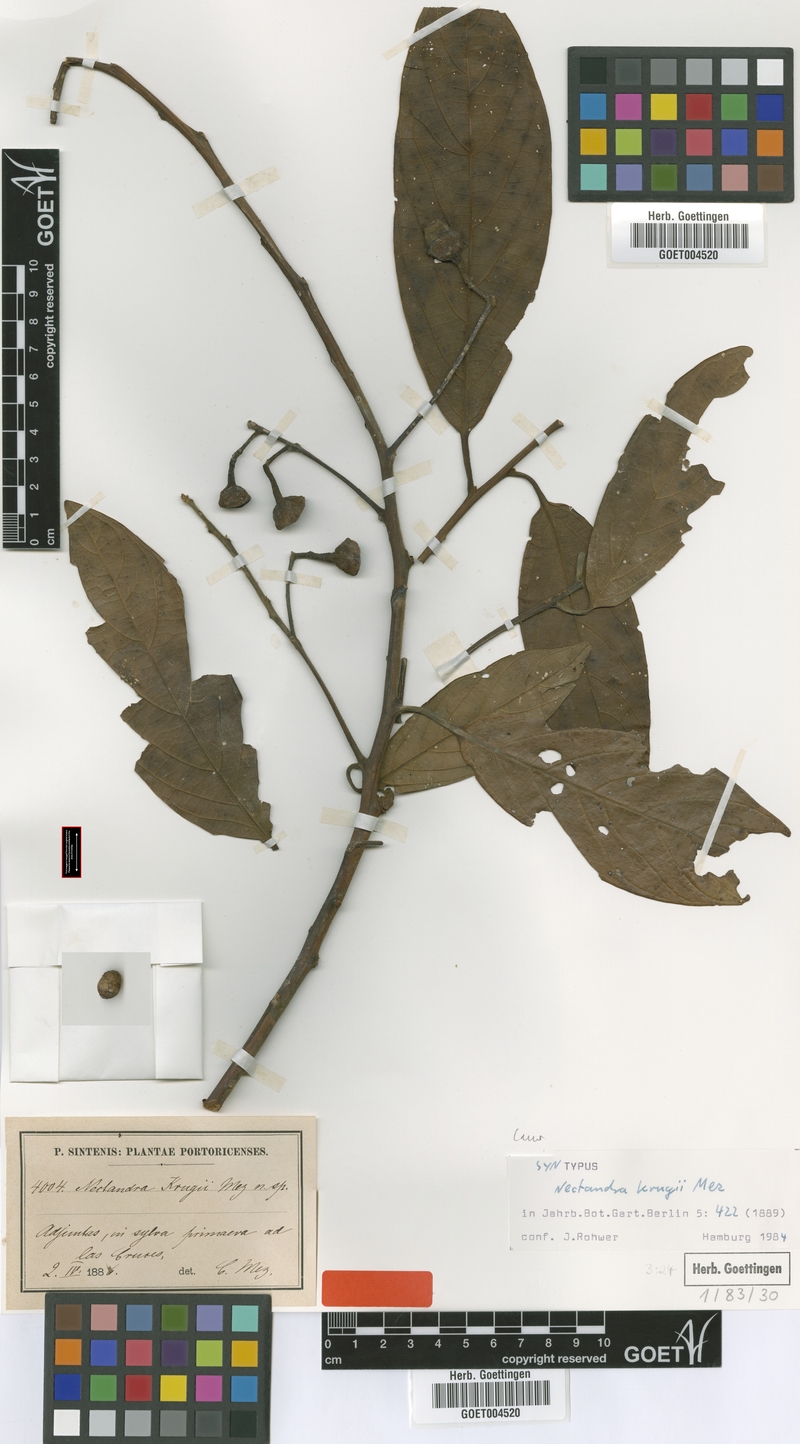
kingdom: Plantae
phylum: Tracheophyta
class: Magnoliopsida
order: Laurales
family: Lauraceae
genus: Nectandra
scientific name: Nectandra krugii
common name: Black sweetwood
